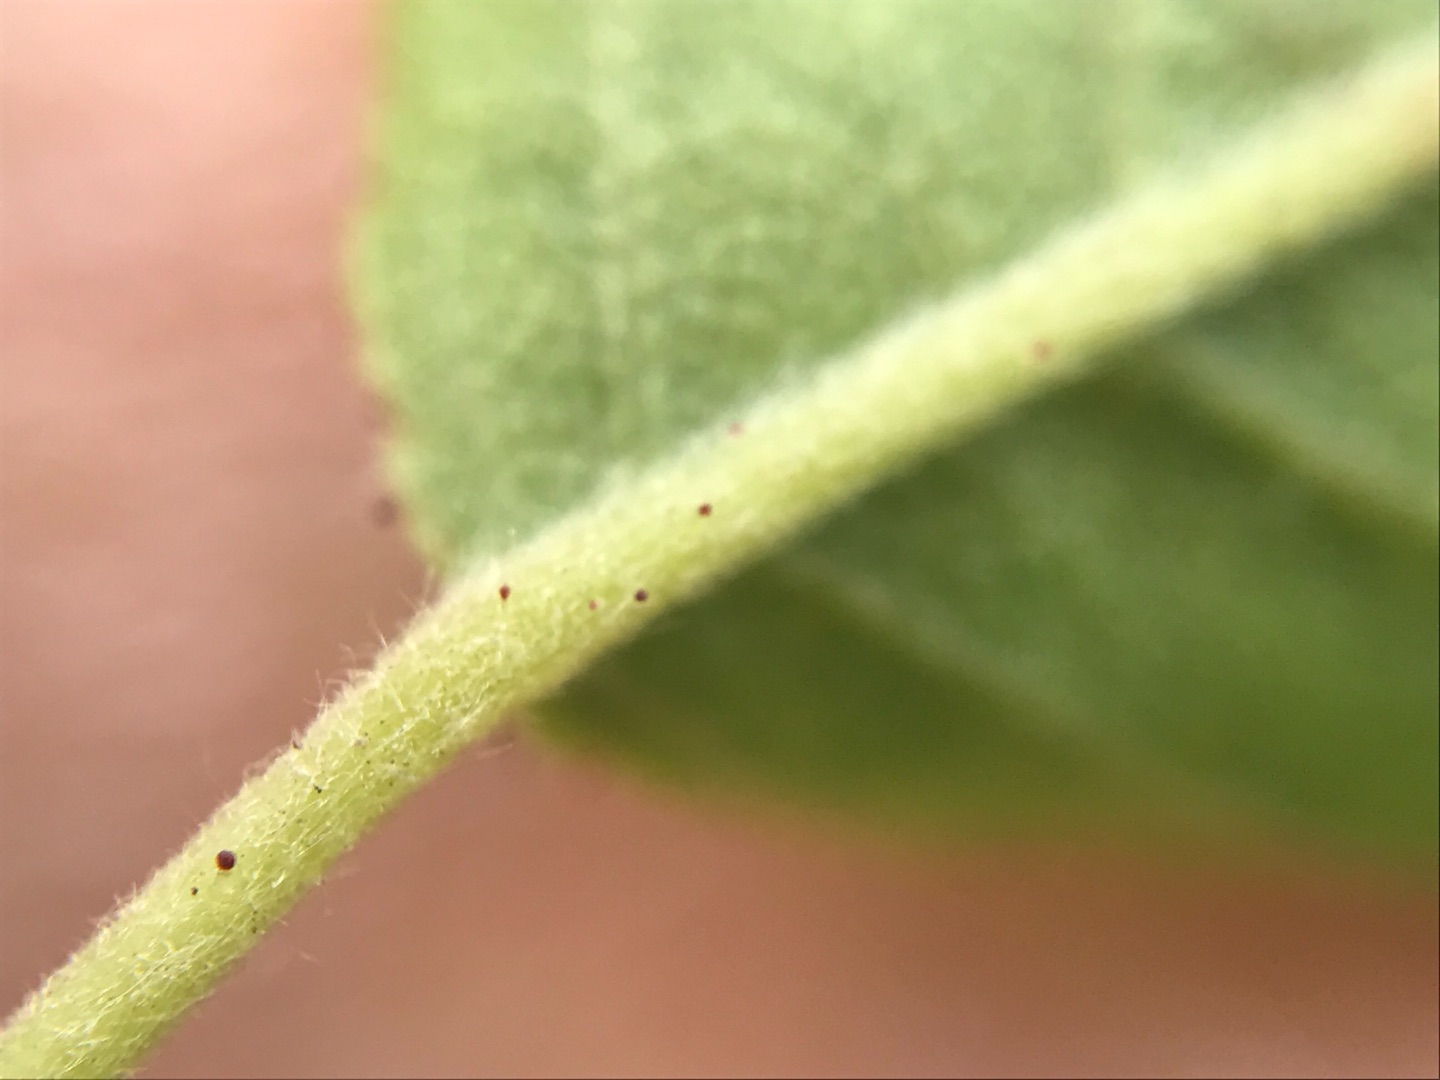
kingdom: Plantae
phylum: Tracheophyta
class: Magnoliopsida
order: Rosales
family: Rosaceae
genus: Rosa
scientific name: Rosa balsamica
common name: Rubladet rose
